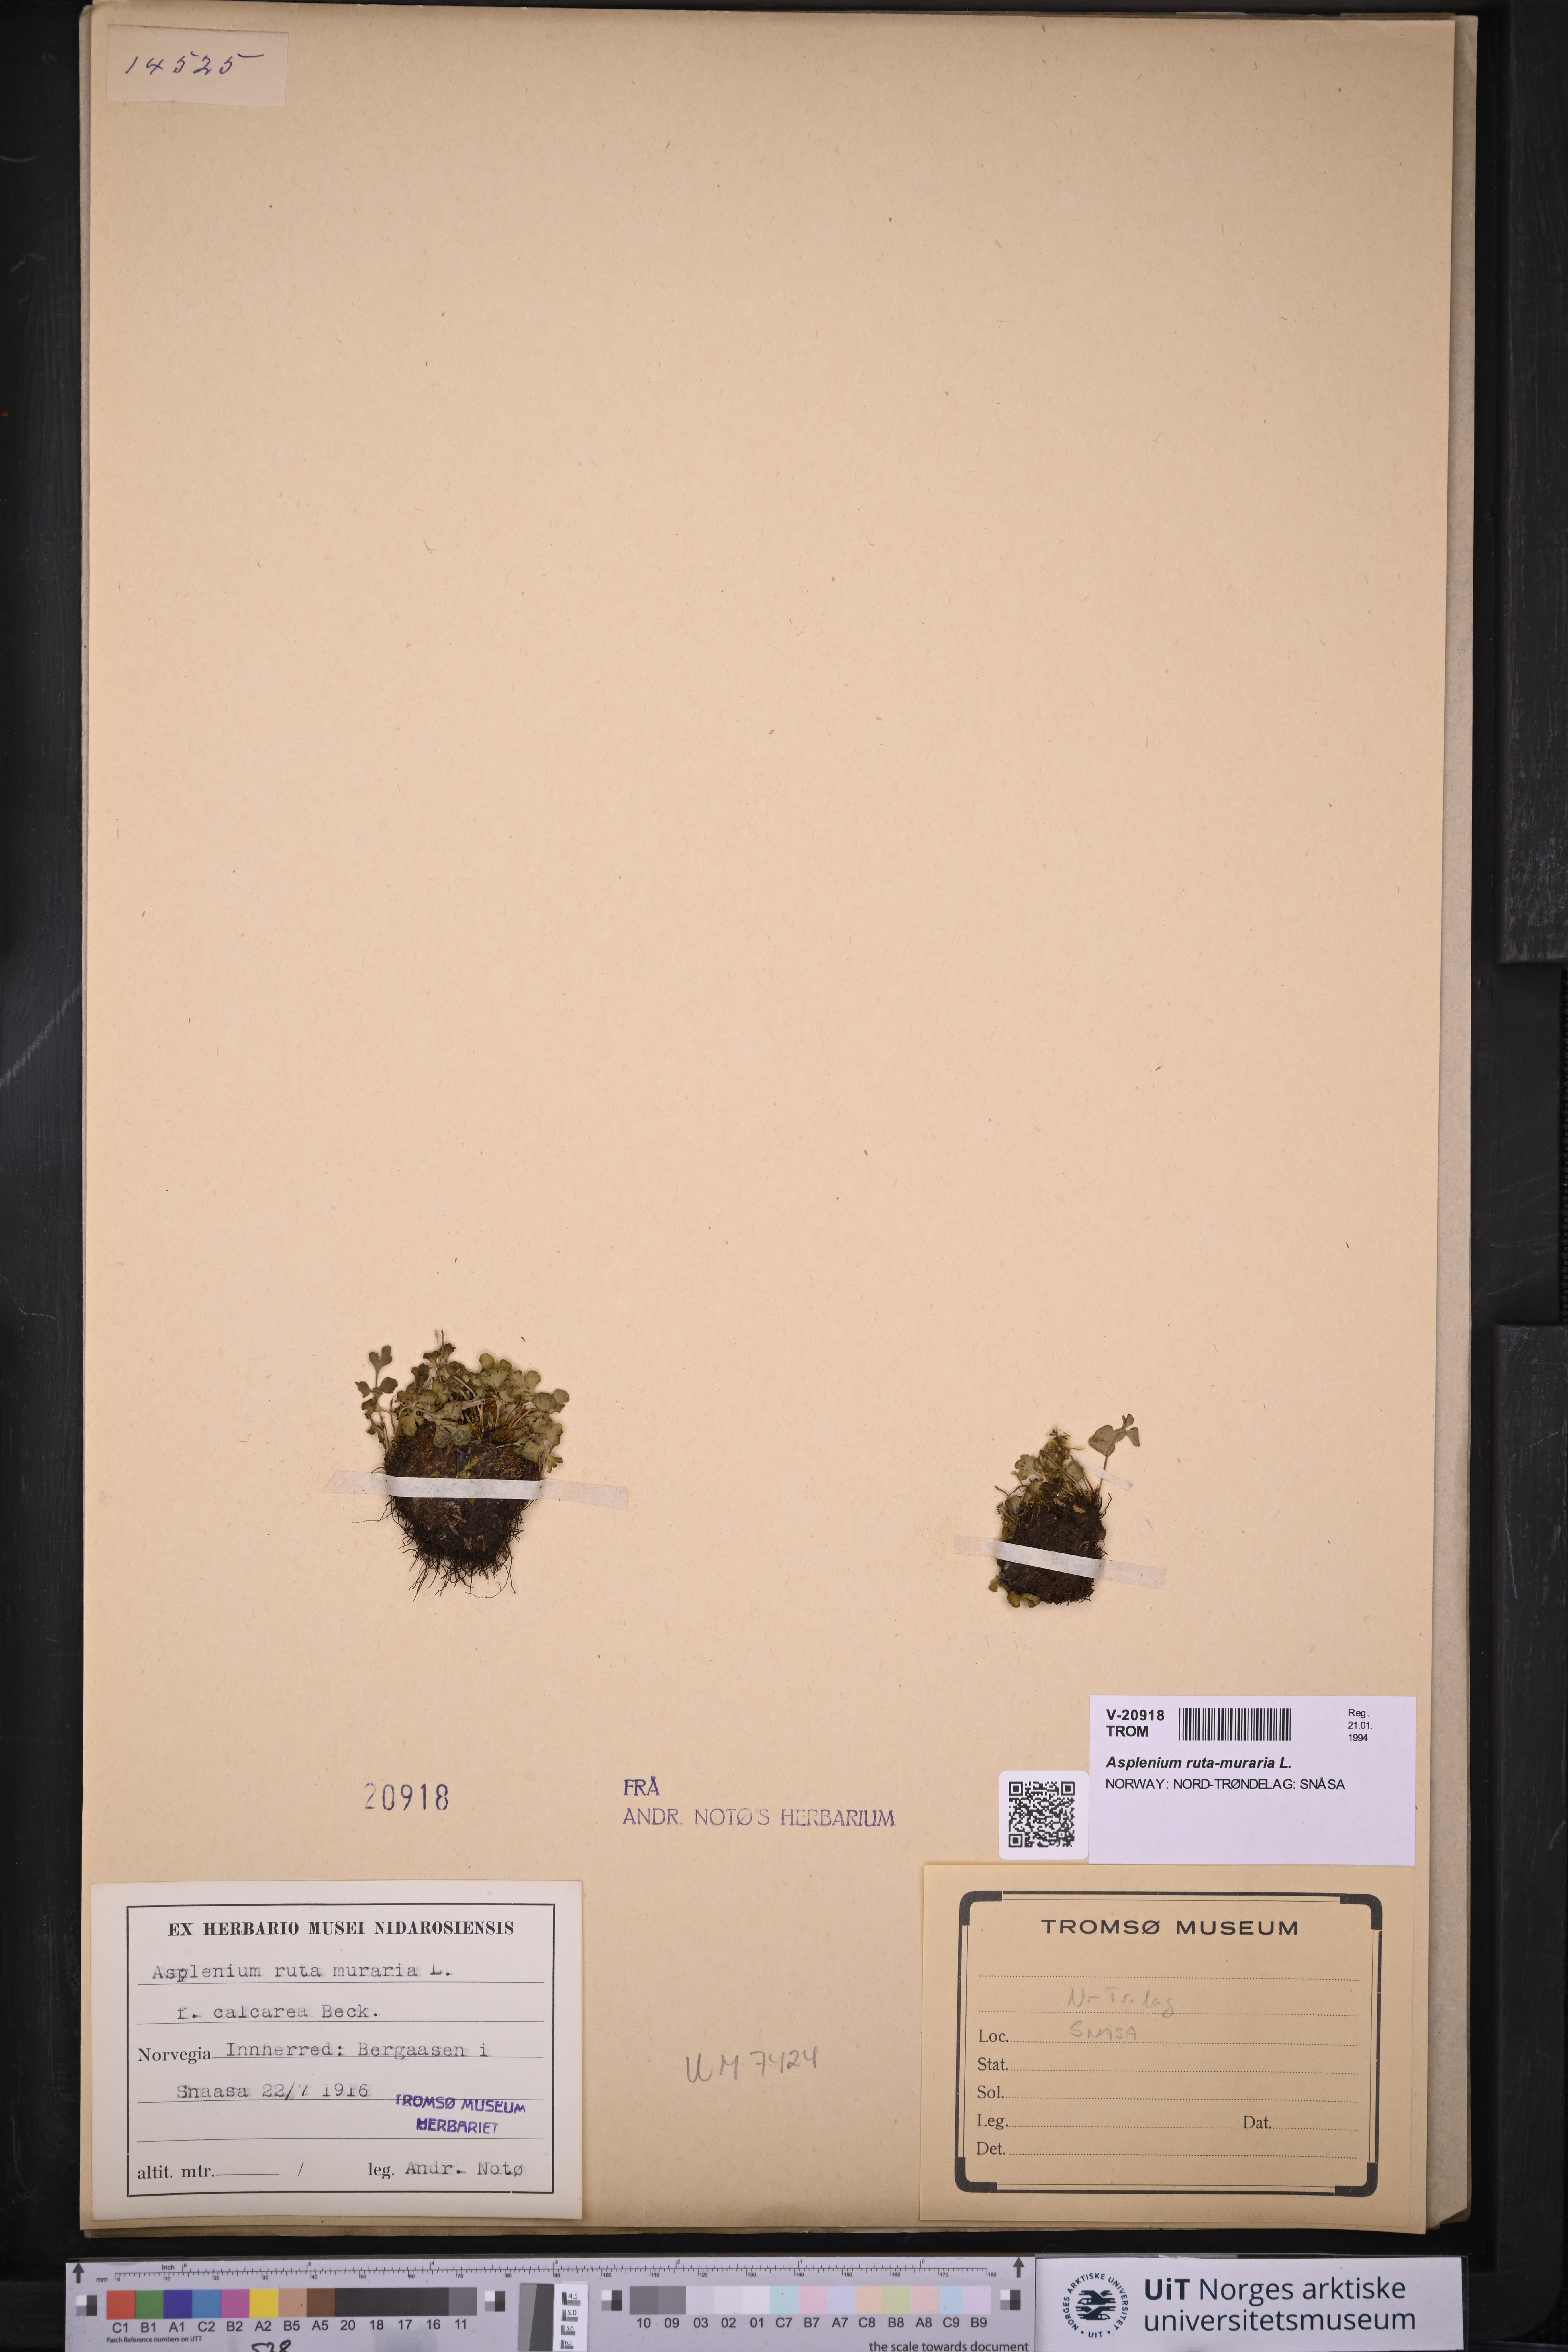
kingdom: Plantae
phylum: Tracheophyta
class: Polypodiopsida
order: Polypodiales
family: Aspleniaceae
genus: Asplenium
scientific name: Asplenium ruta-muraria
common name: Wall-rue
